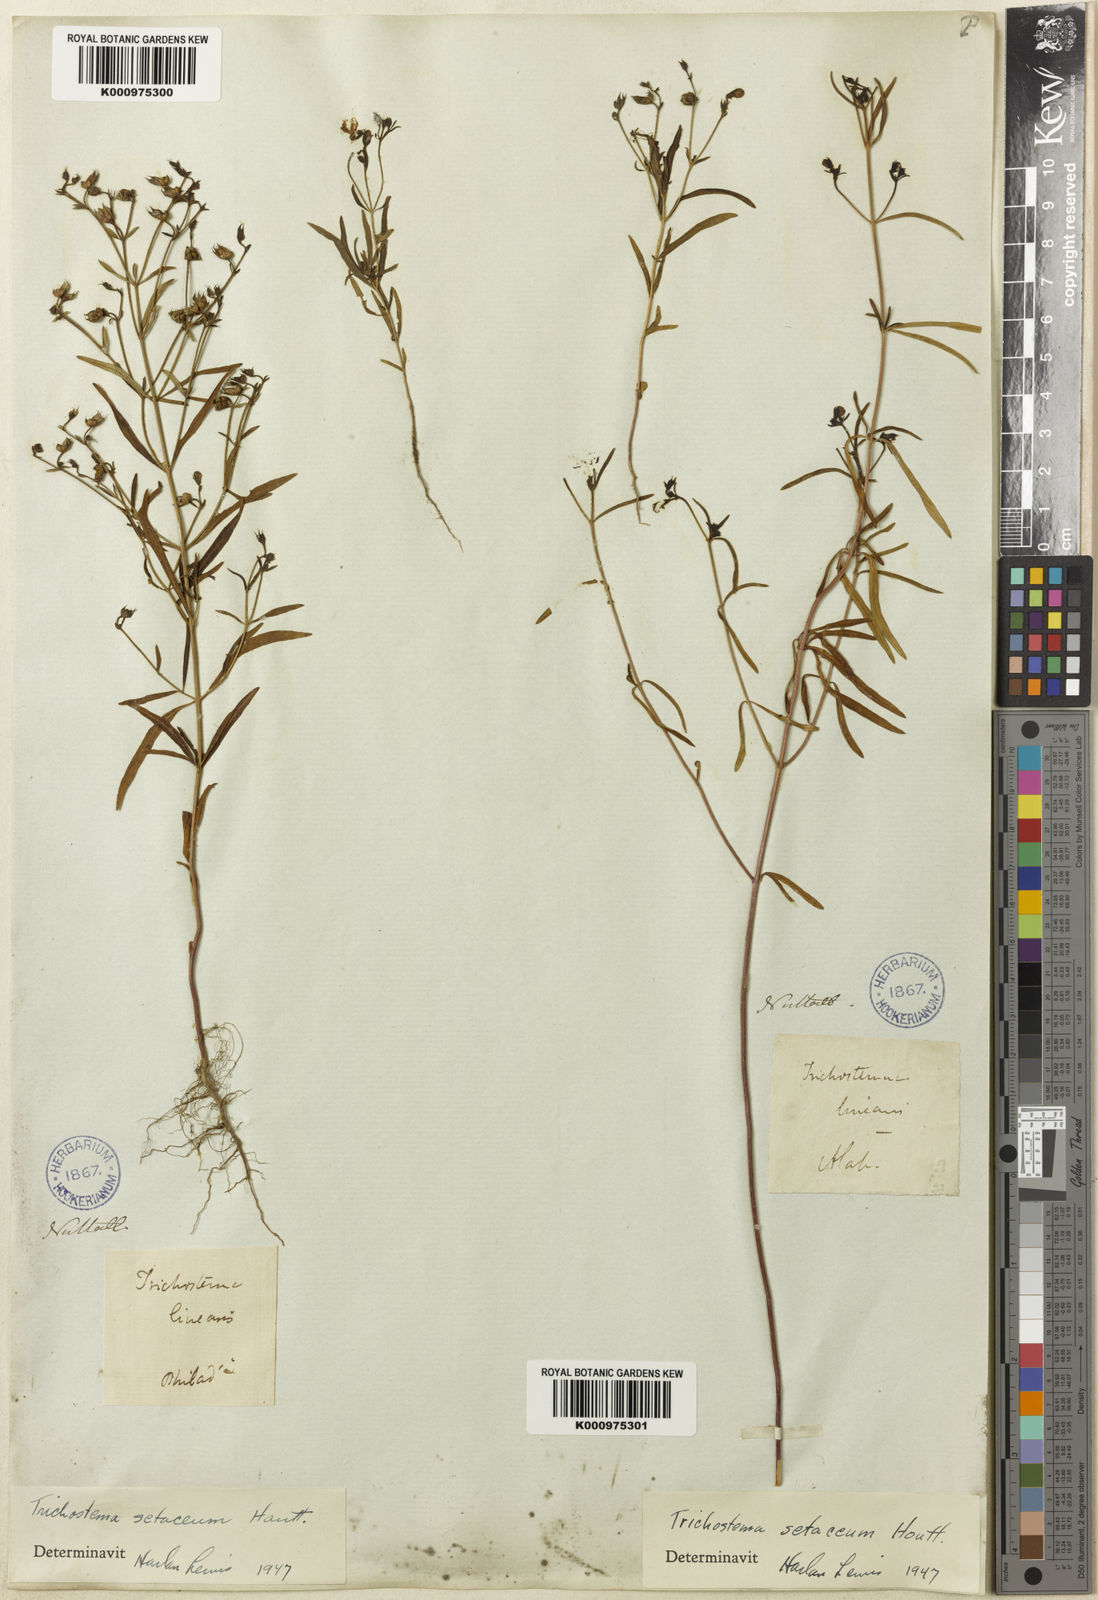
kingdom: Plantae
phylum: Tracheophyta
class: Magnoliopsida
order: Lamiales
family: Lamiaceae
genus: Trichostema
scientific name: Trichostema setaceum
